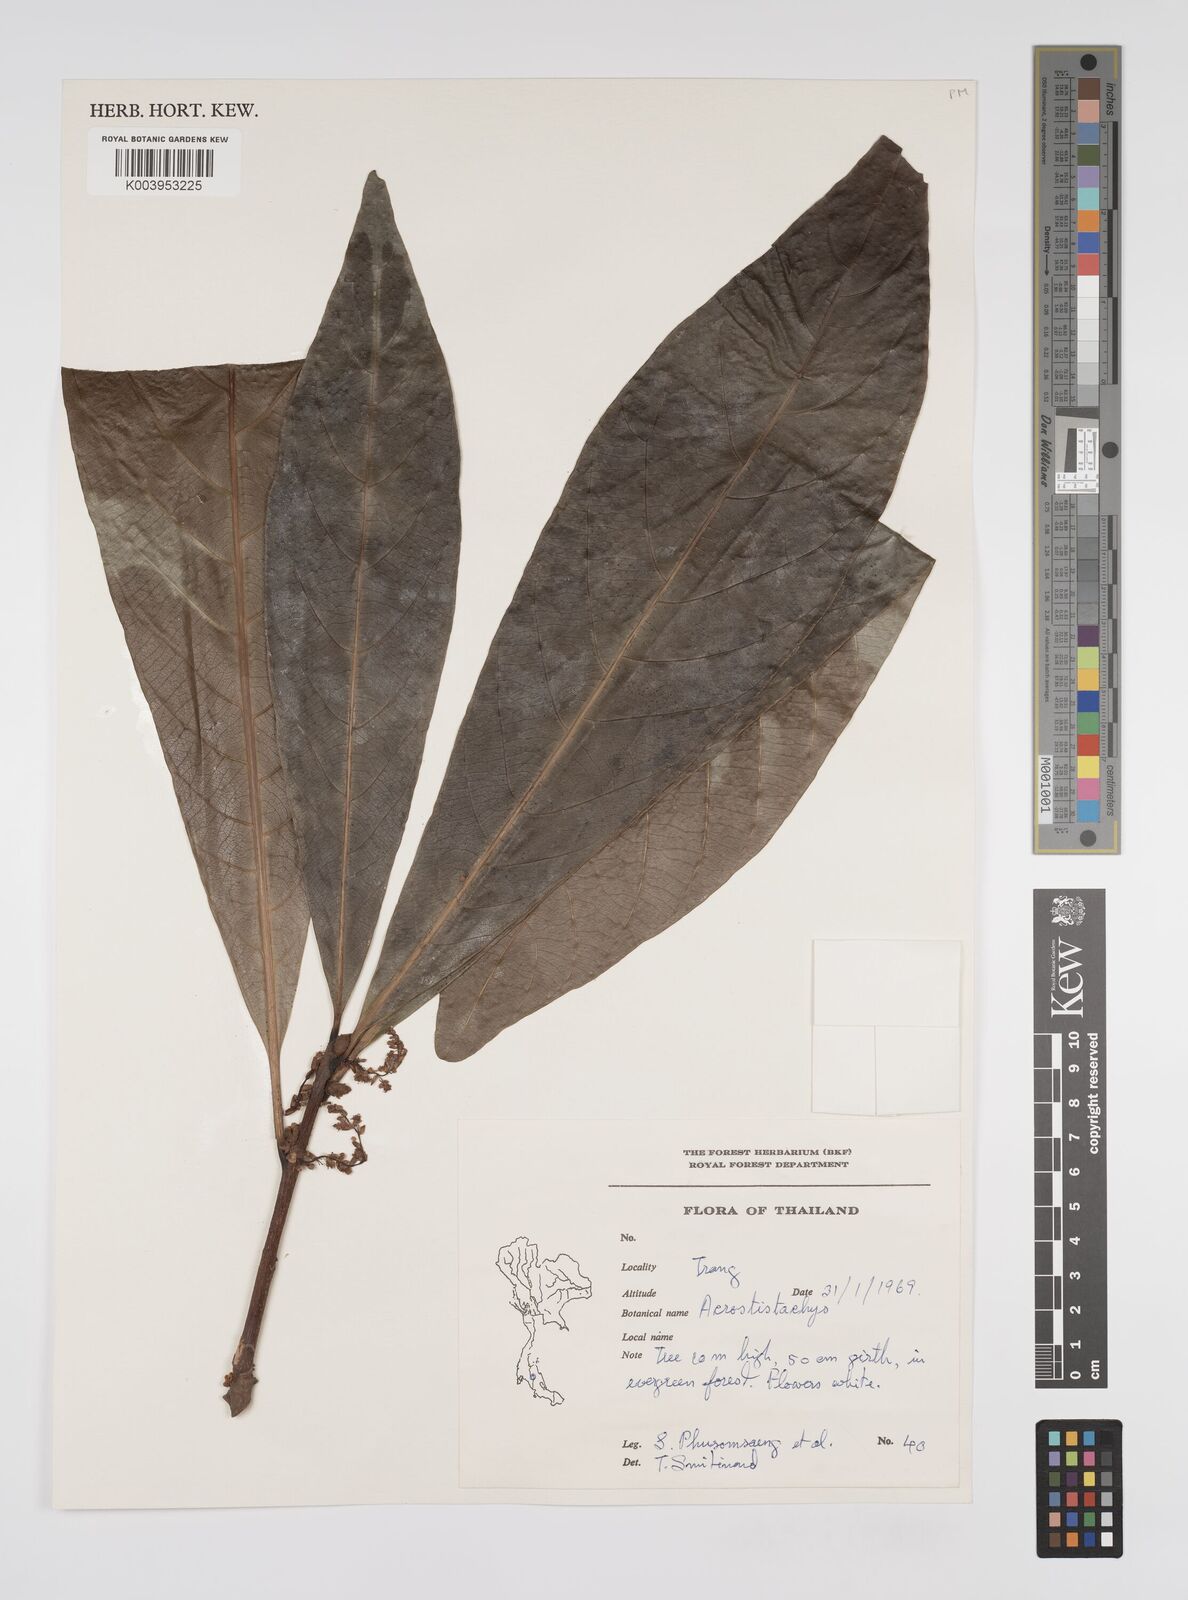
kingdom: Plantae
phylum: Tracheophyta
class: Magnoliopsida
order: Malpighiales
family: Euphorbiaceae
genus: Agrostistachys
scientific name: Agrostistachys gaudichaudii
